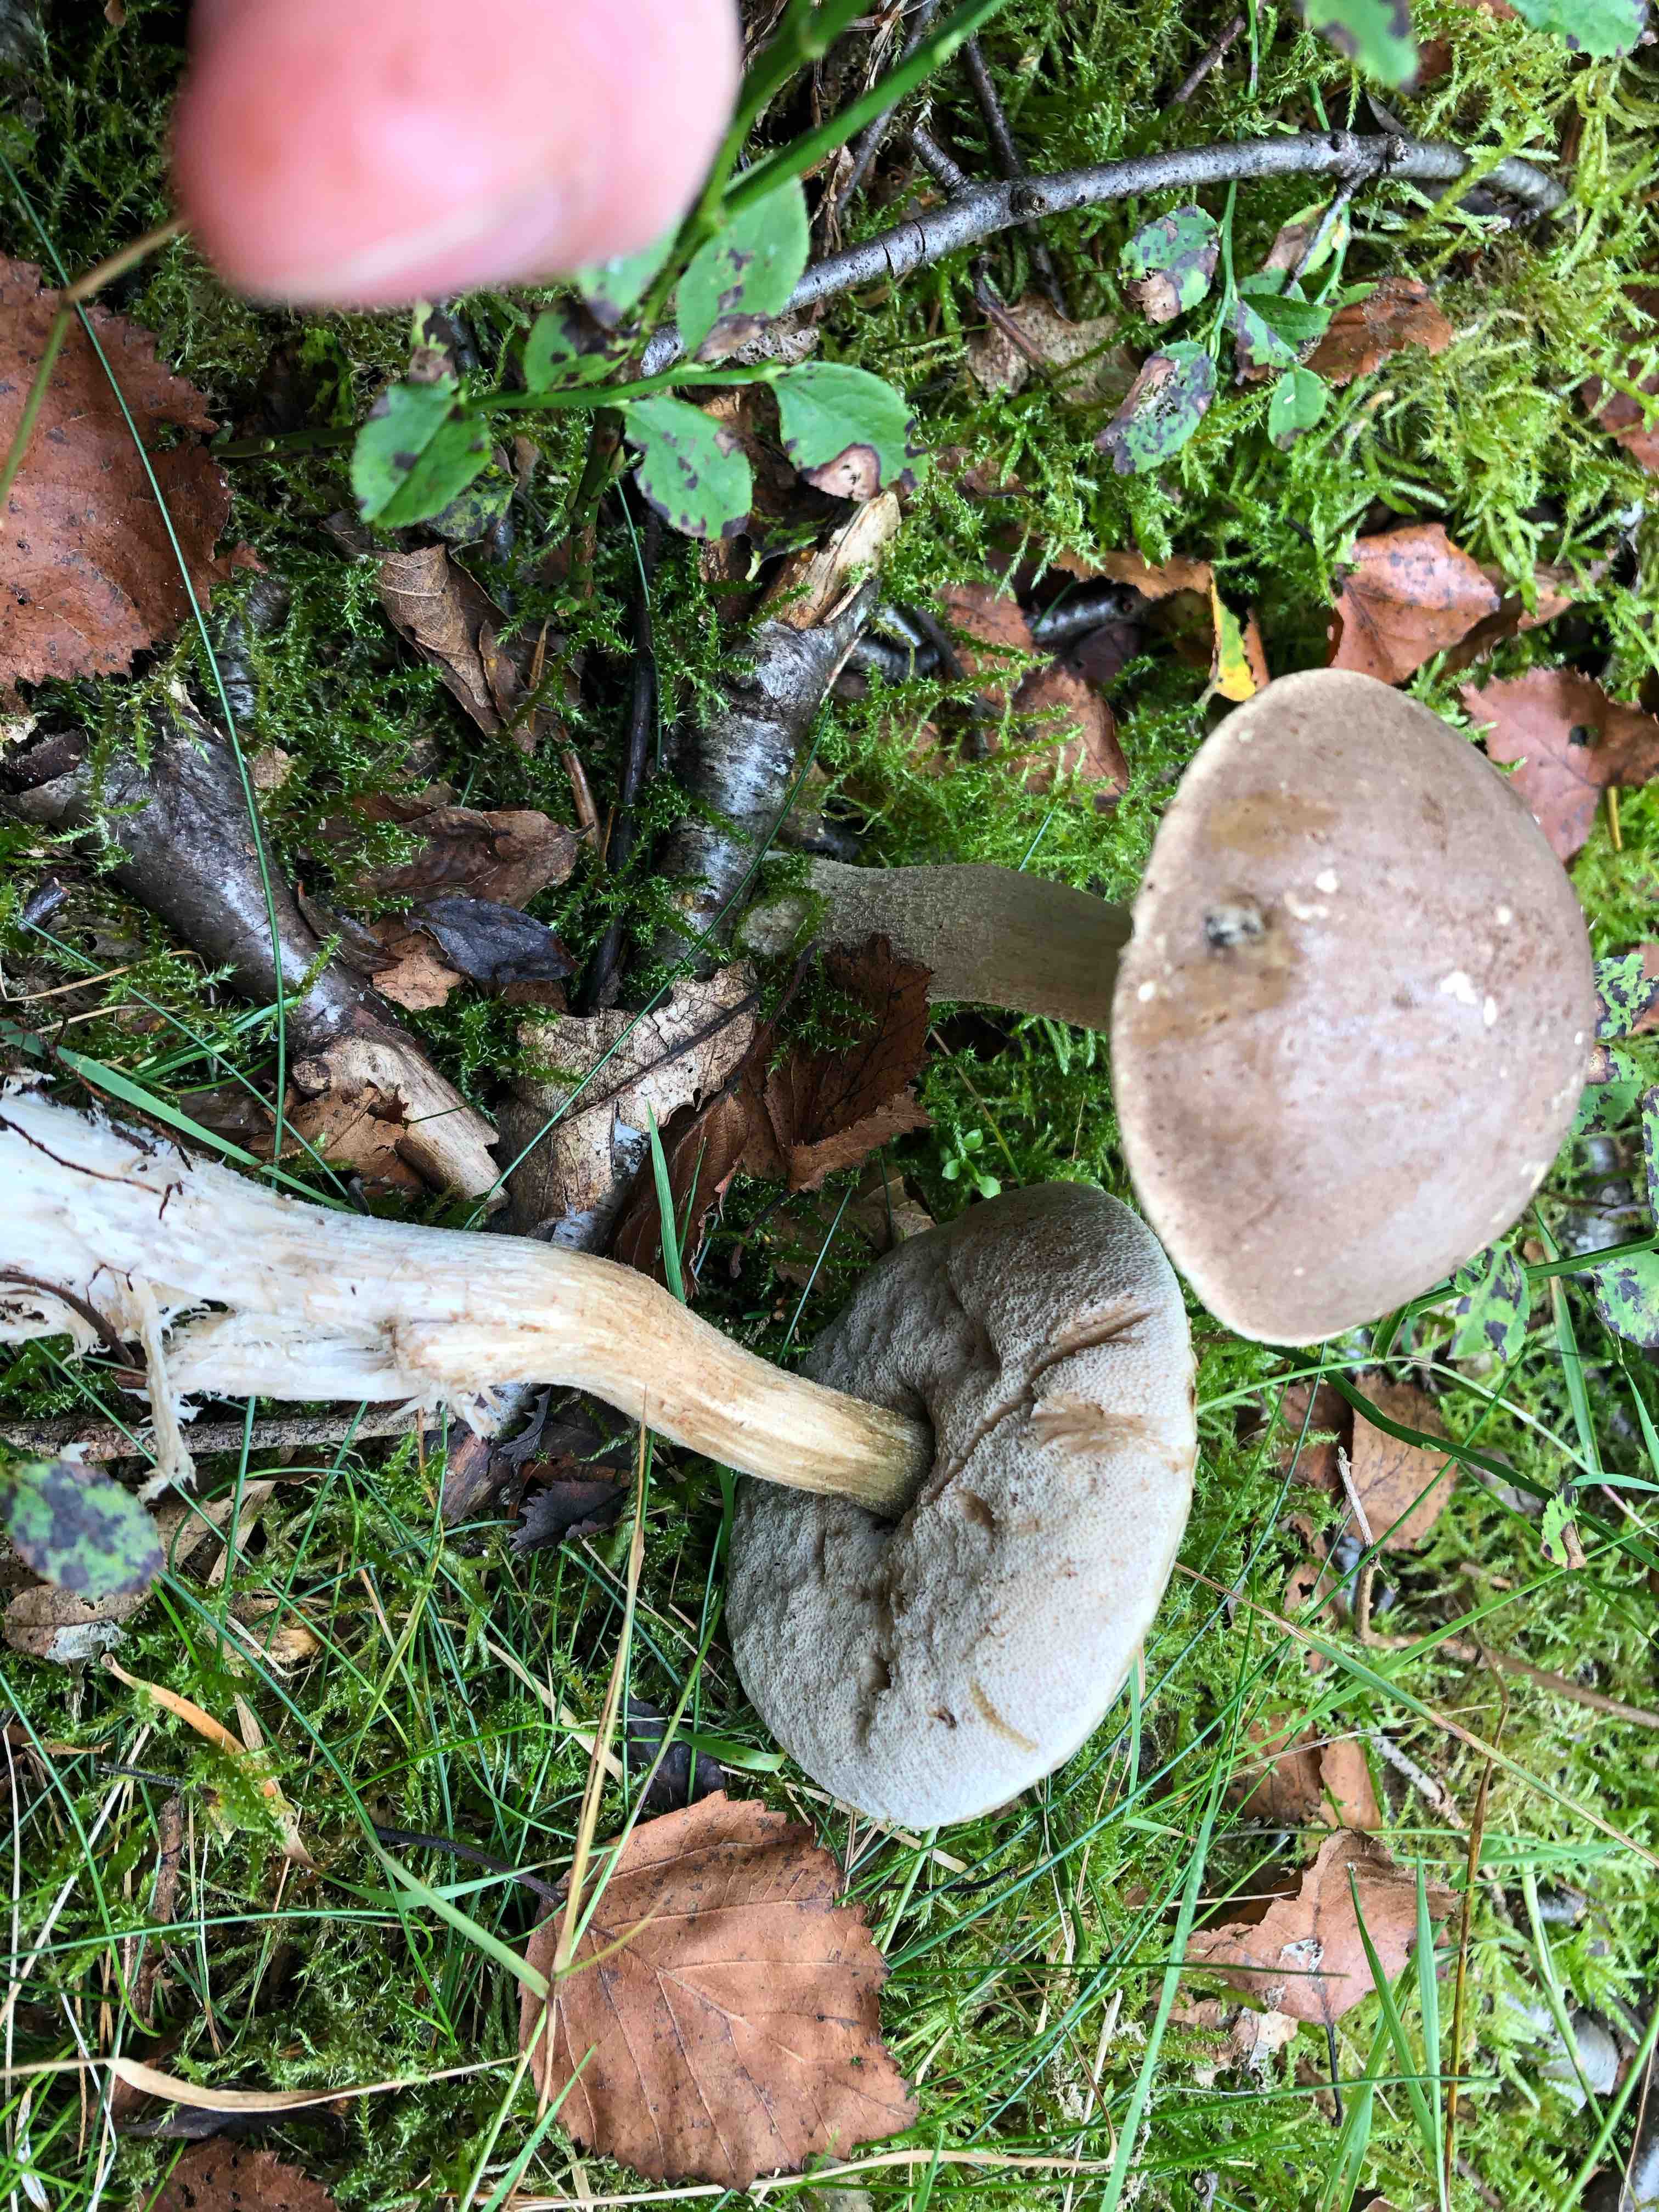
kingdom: Fungi
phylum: Basidiomycota
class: Agaricomycetes
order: Boletales
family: Boletaceae
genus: Leccinum
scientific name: Leccinum
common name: skælrørhat
